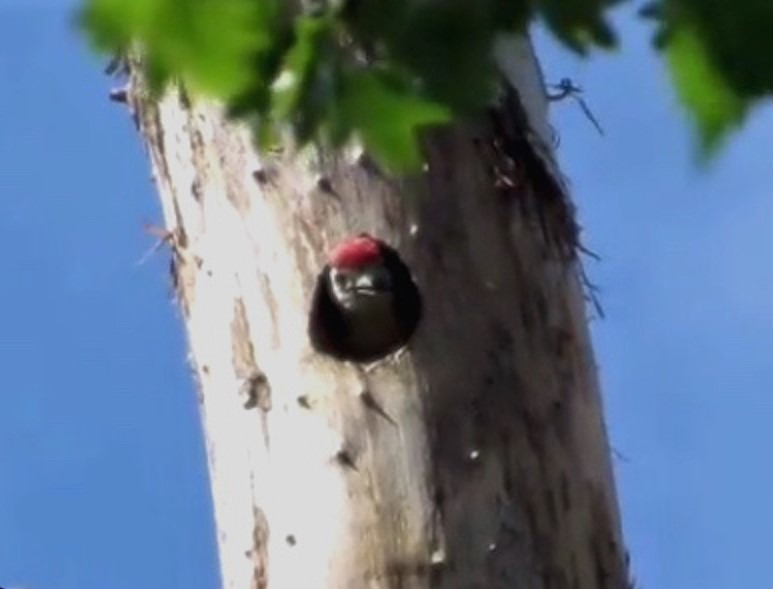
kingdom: Animalia
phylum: Chordata
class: Aves
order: Piciformes
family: Picidae
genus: Dendrocopos
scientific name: Dendrocopos major
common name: Stor flagspætte
